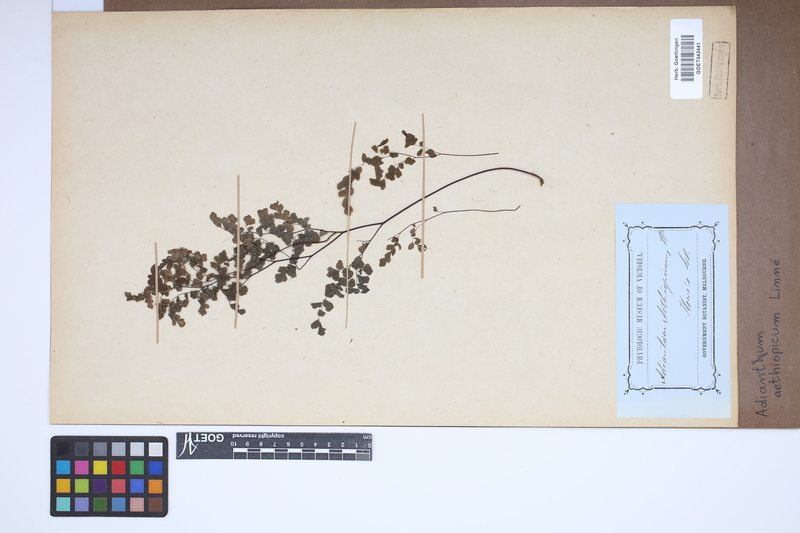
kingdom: Plantae
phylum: Tracheophyta
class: Polypodiopsida
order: Polypodiales
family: Pteridaceae
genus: Adiantum
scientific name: Adiantum aethiopicum
